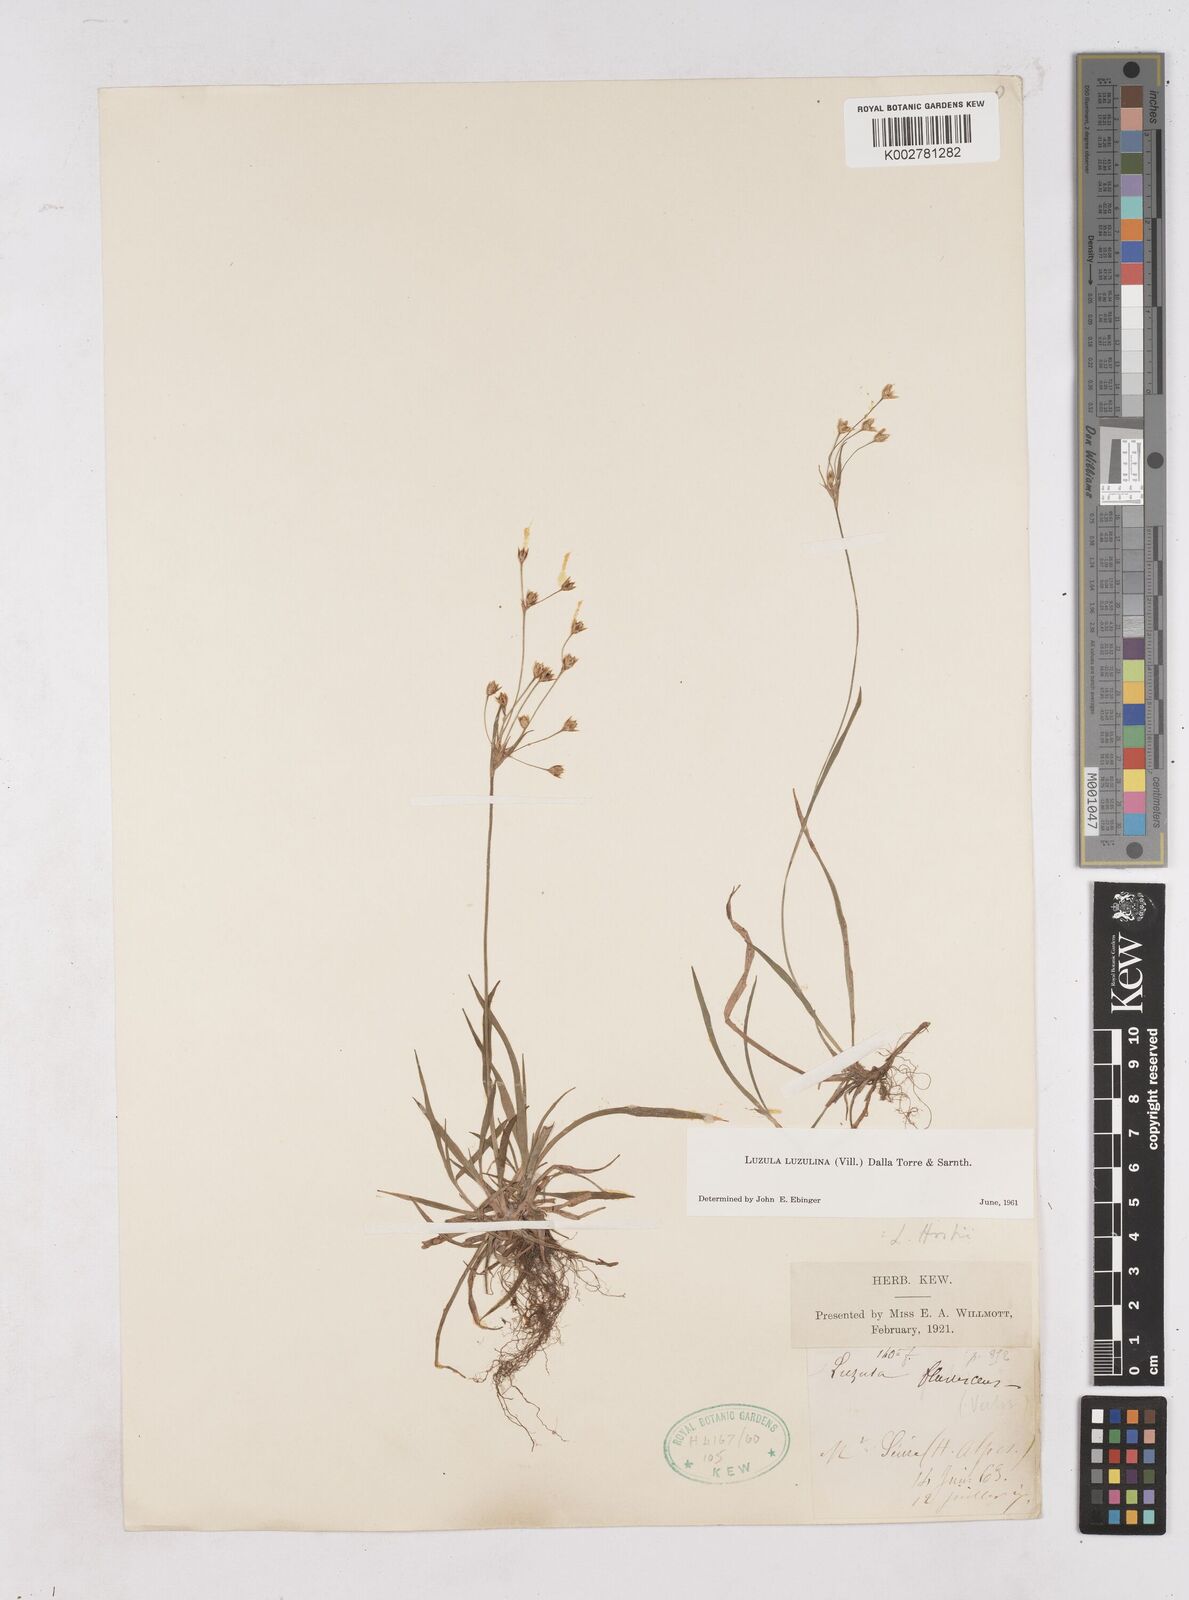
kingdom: Plantae
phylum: Tracheophyta
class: Liliopsida
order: Poales
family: Juncaceae
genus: Luzula
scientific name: Luzula luzulina
